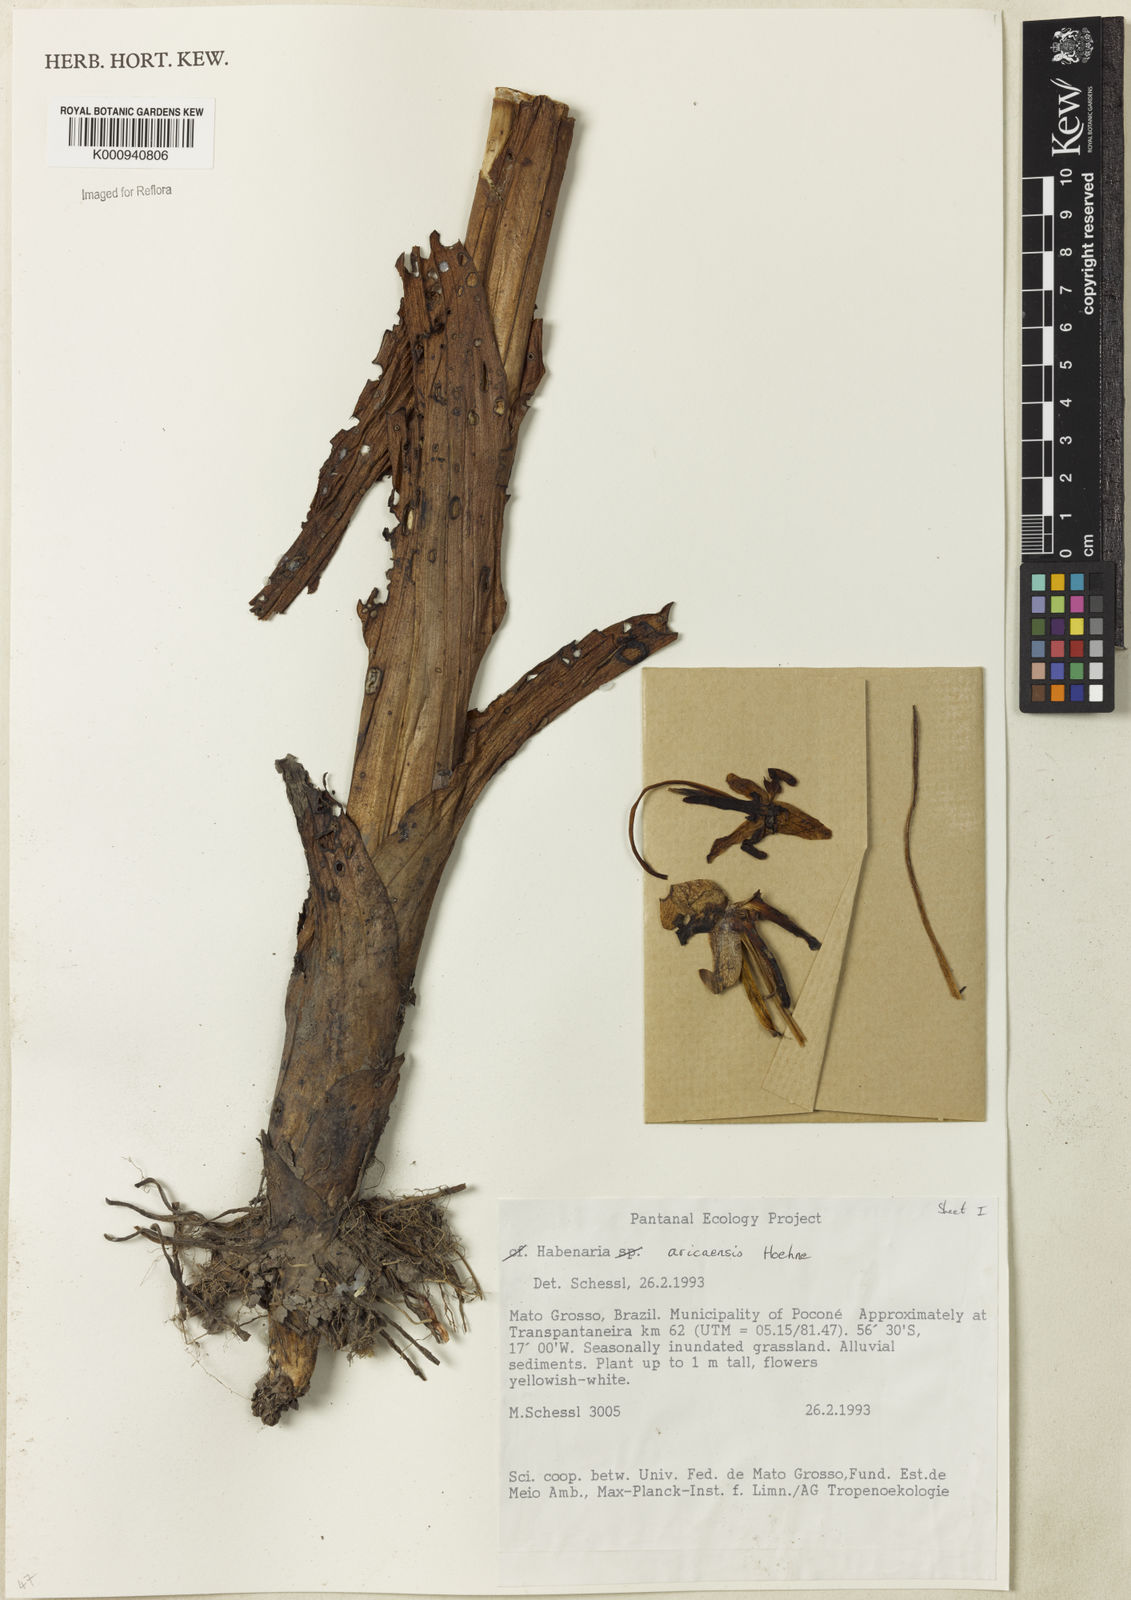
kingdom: Plantae
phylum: Tracheophyta
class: Liliopsida
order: Asparagales
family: Orchidaceae
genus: Habenaria
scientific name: Habenaria aricaensis
